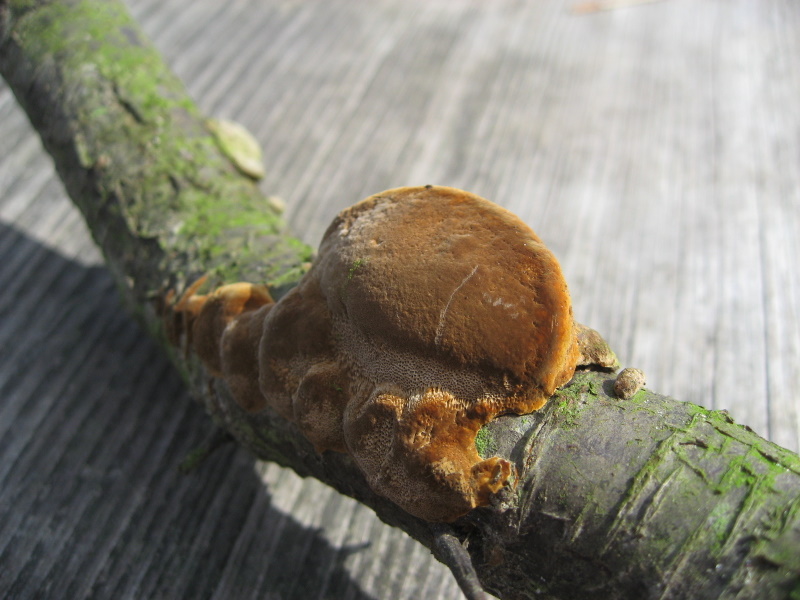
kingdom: Fungi
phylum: Basidiomycota
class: Agaricomycetes
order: Hymenochaetales
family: Hymenochaetaceae
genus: Phellinus
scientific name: Phellinus pomaceus
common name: blomme-ildporesvamp
